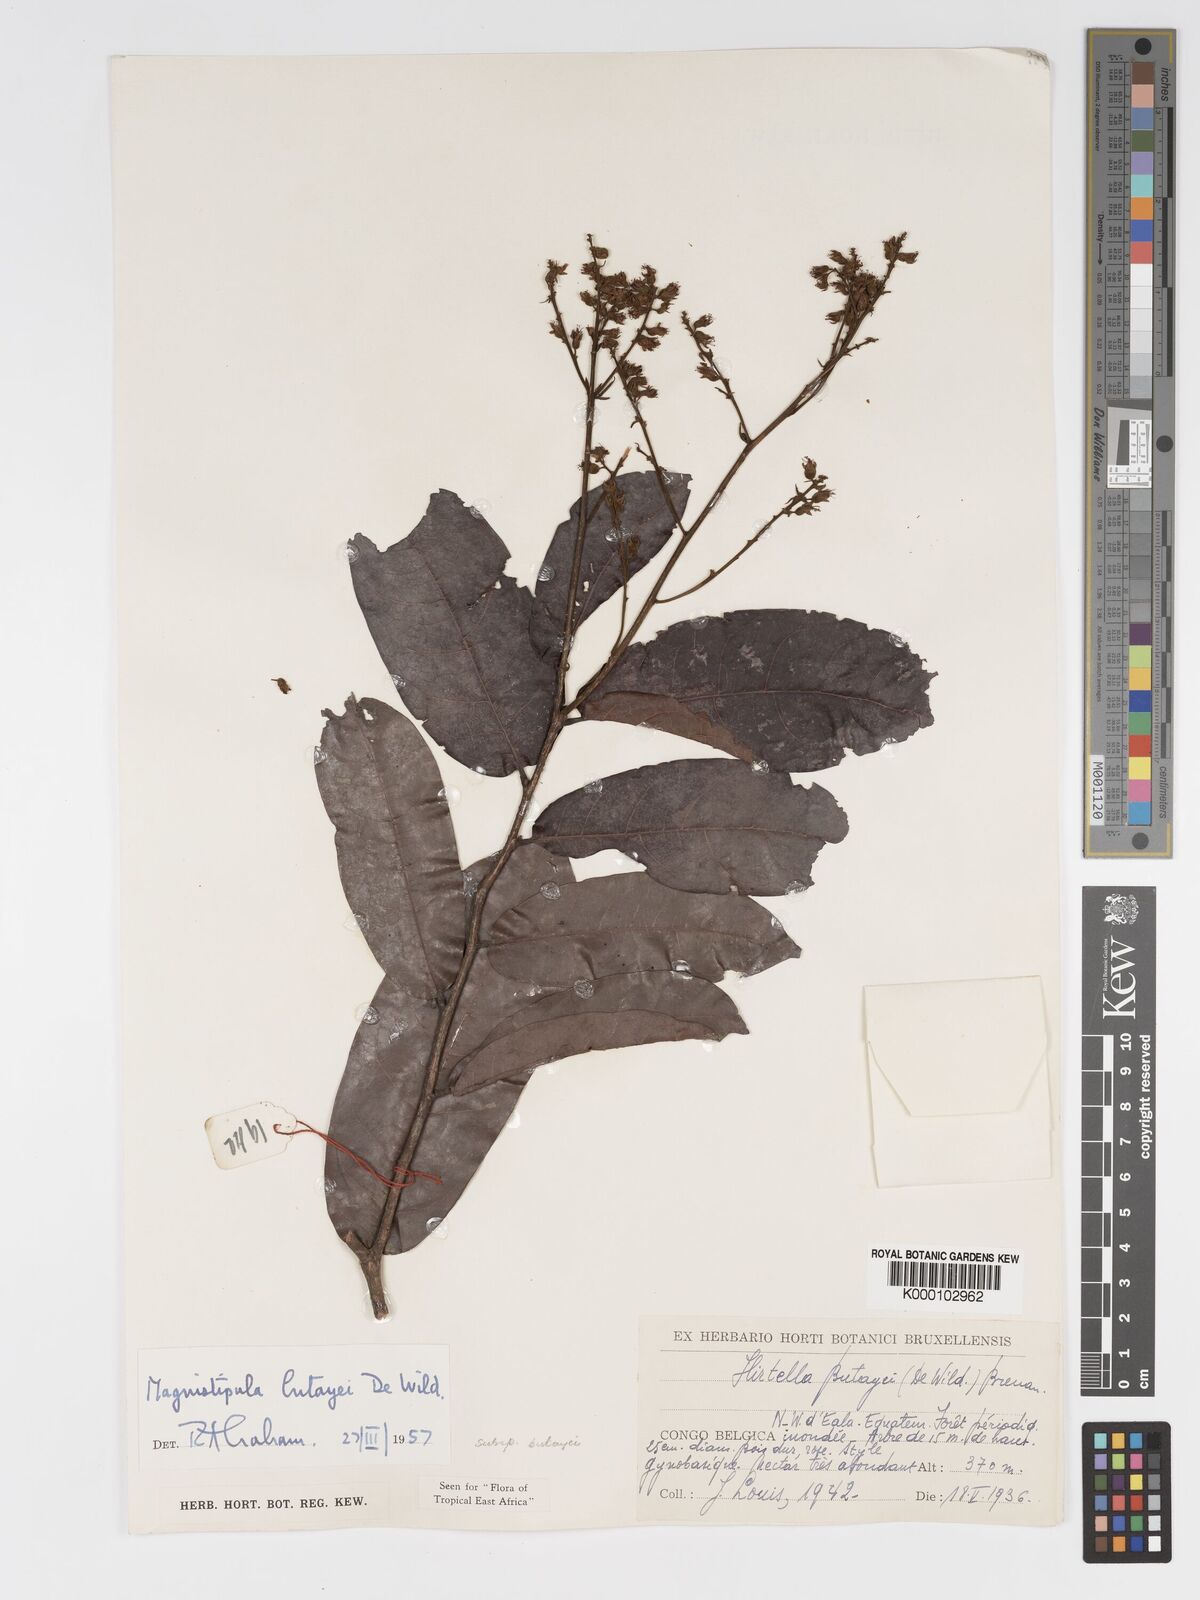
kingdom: Plantae
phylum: Tracheophyta
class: Magnoliopsida
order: Malpighiales
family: Chrysobalanaceae
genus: Magnistipula
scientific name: Magnistipula butayei
